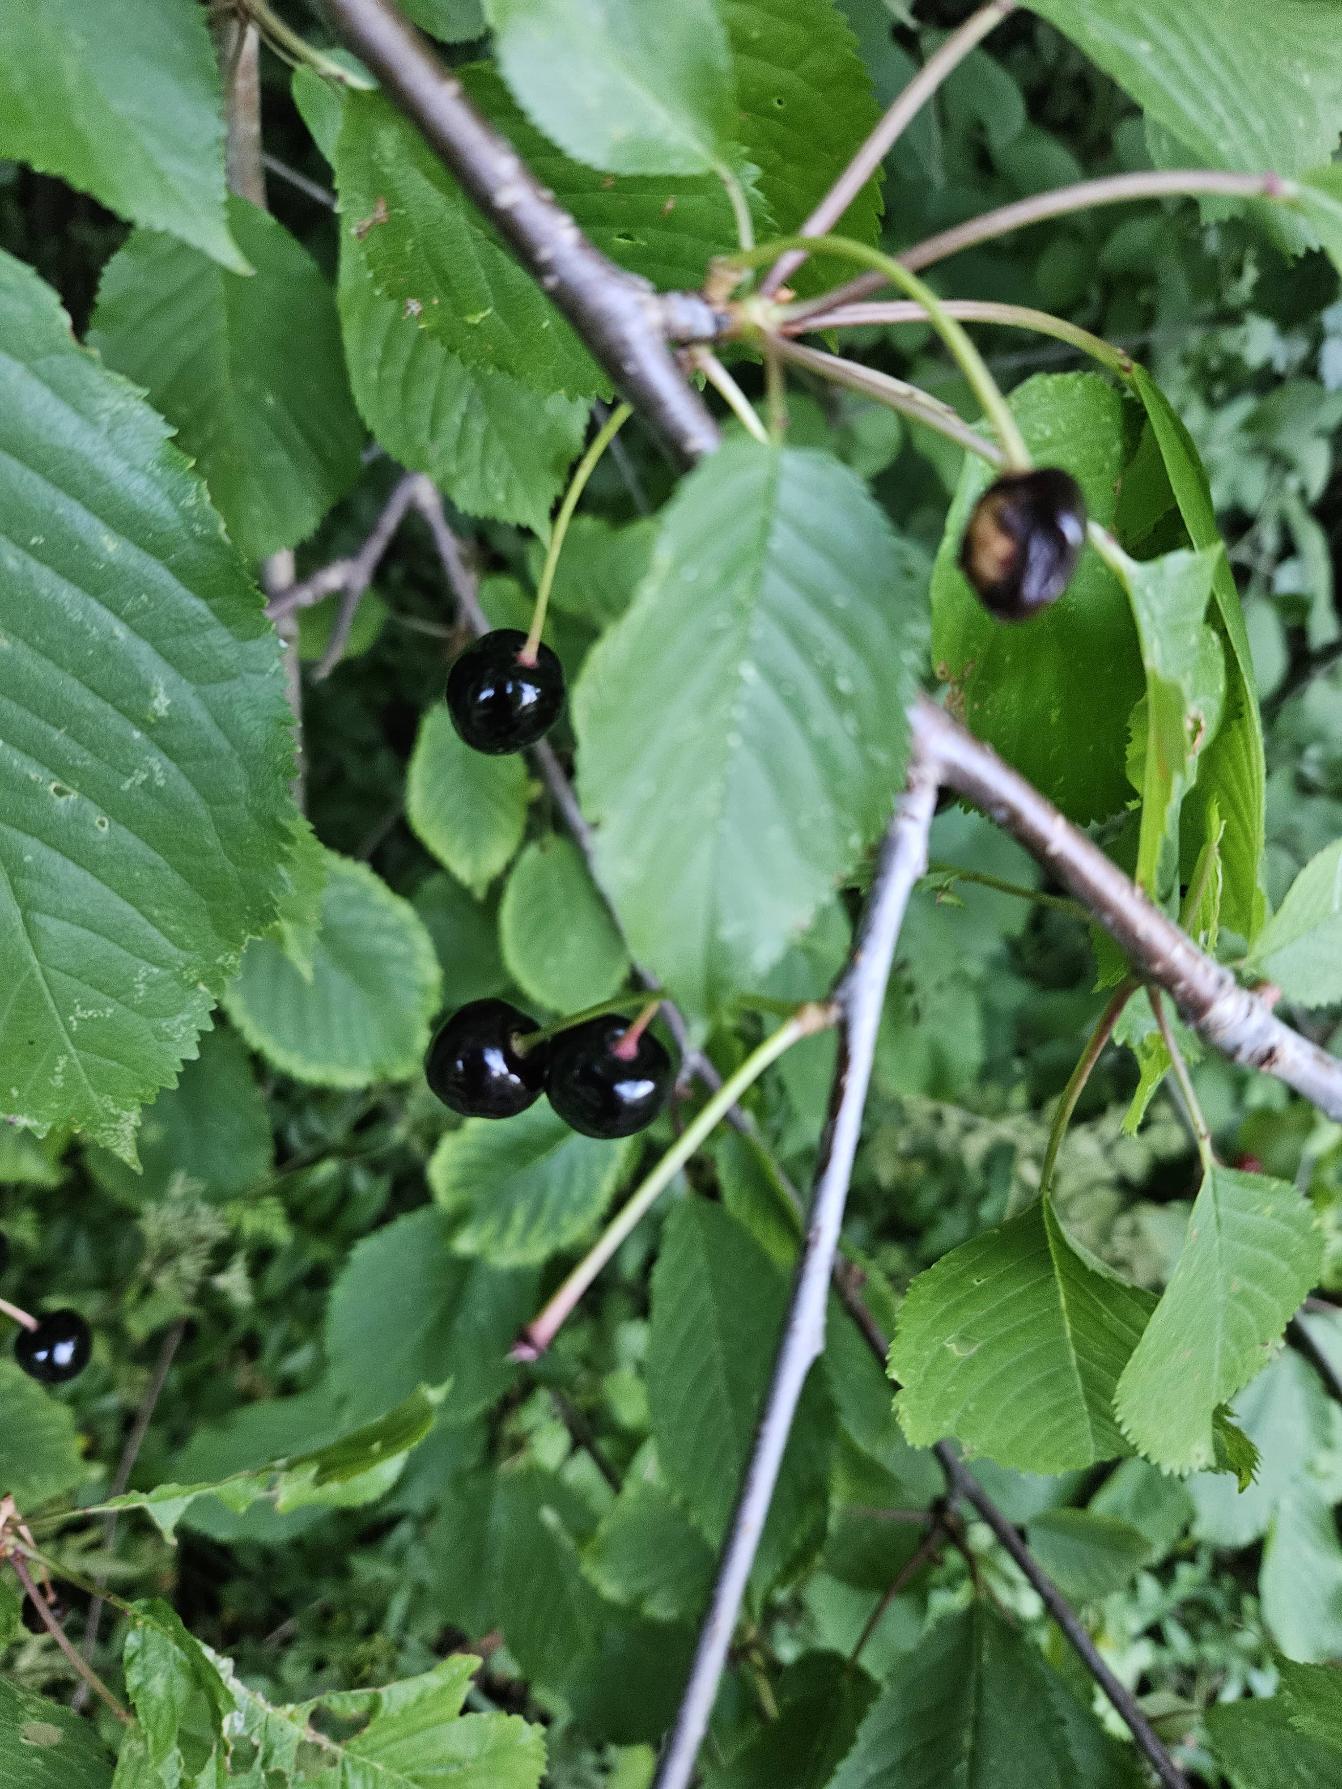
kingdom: Plantae
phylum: Tracheophyta
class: Magnoliopsida
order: Rosales
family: Rosaceae
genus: Prunus
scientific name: Prunus avium
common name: Fugle-kirsebær
